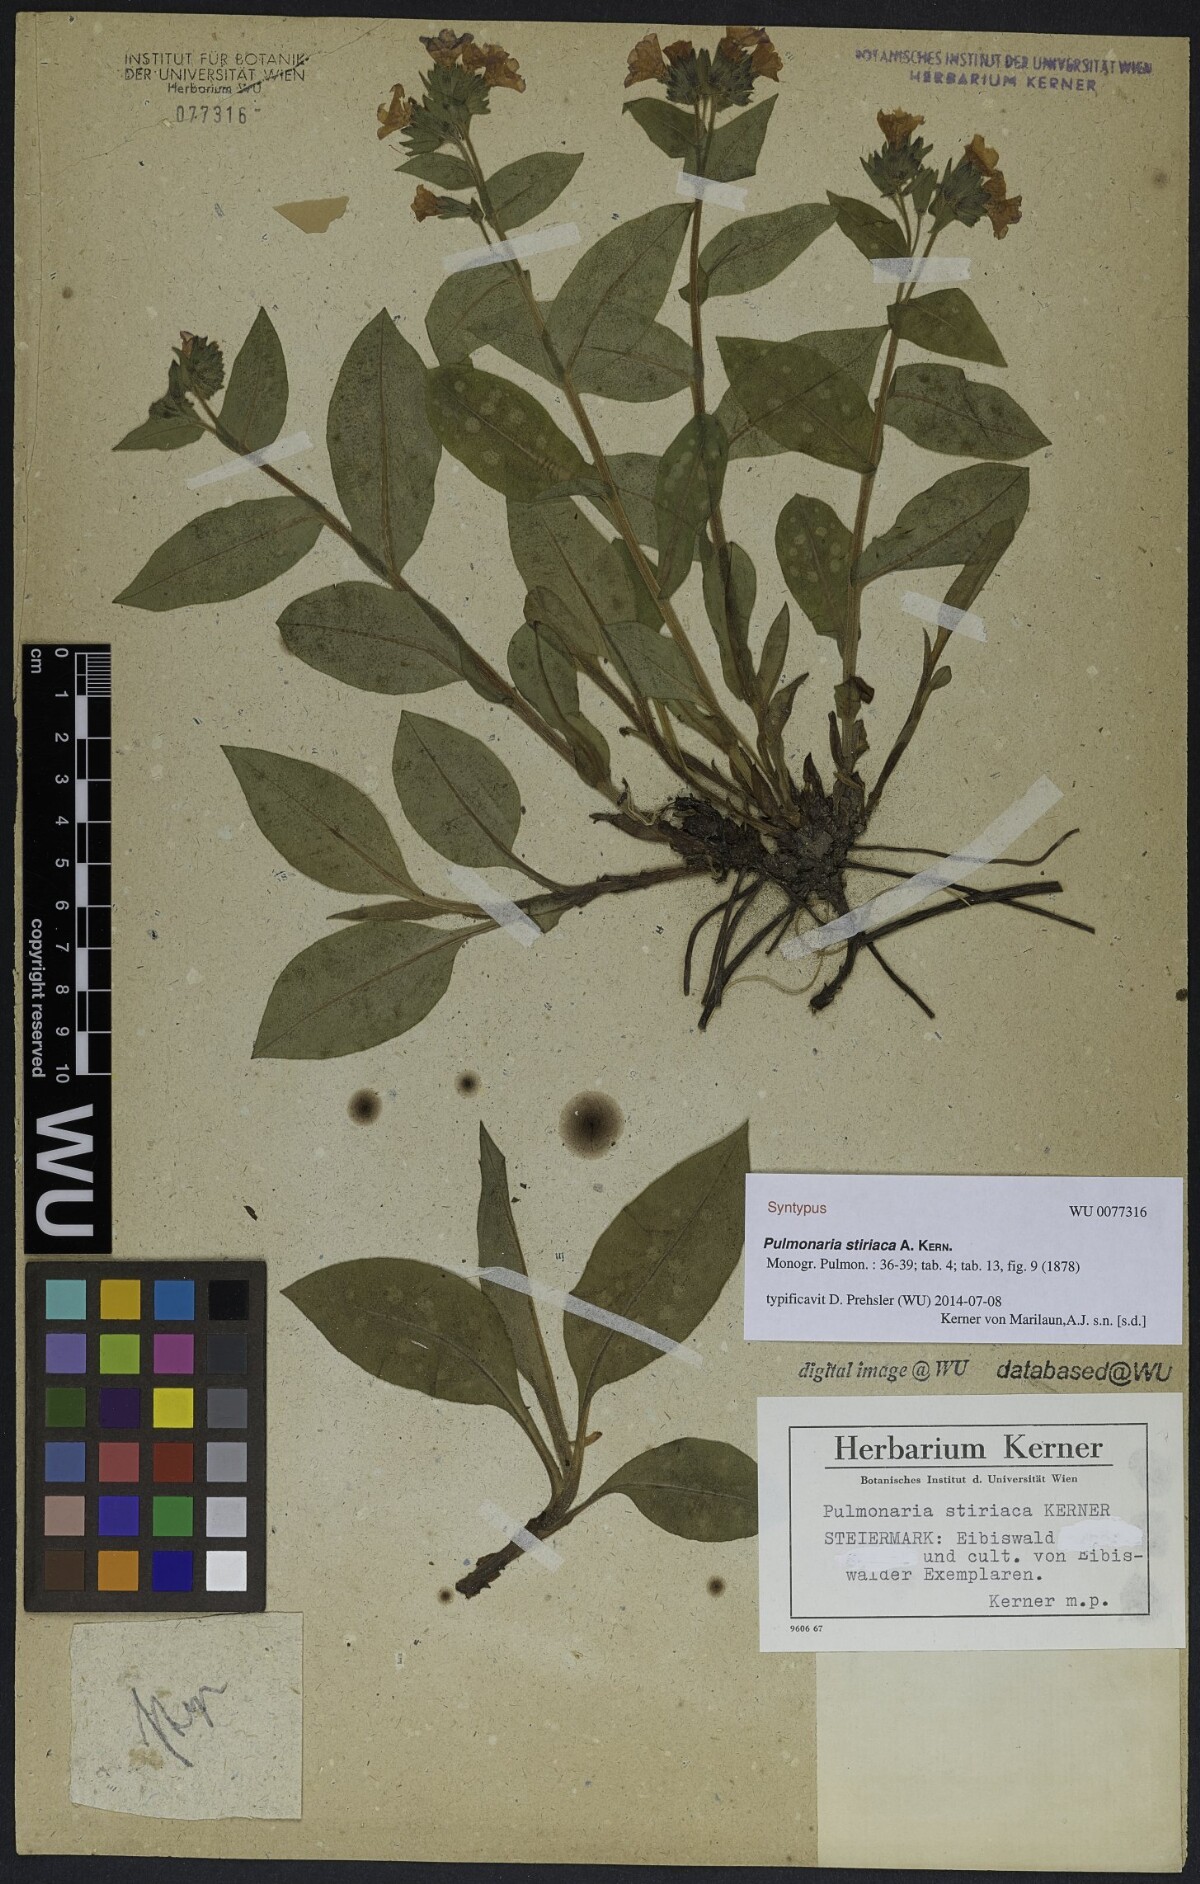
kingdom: Plantae
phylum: Tracheophyta
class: Magnoliopsida
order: Boraginales
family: Boraginaceae
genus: Pulmonaria
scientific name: Pulmonaria stiriaca
